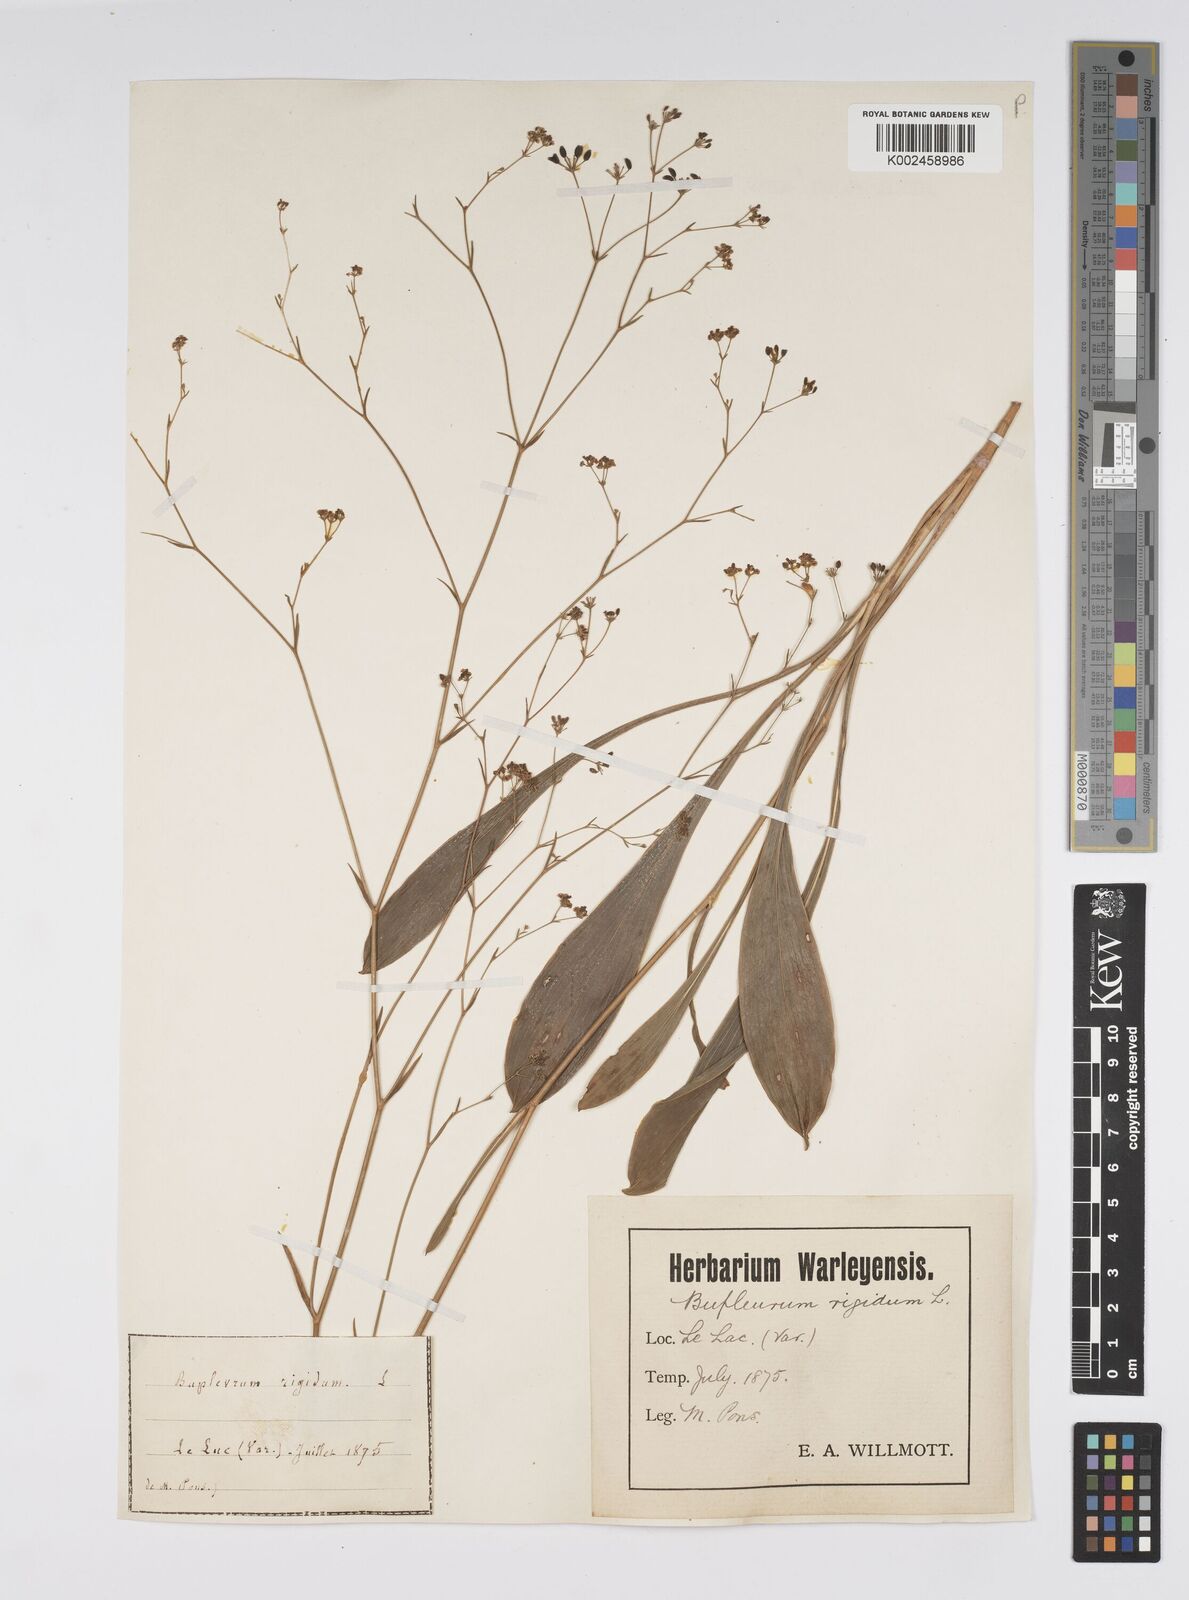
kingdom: Plantae
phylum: Tracheophyta
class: Magnoliopsida
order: Apiales
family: Apiaceae
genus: Bupleurum
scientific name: Bupleurum rigidum
